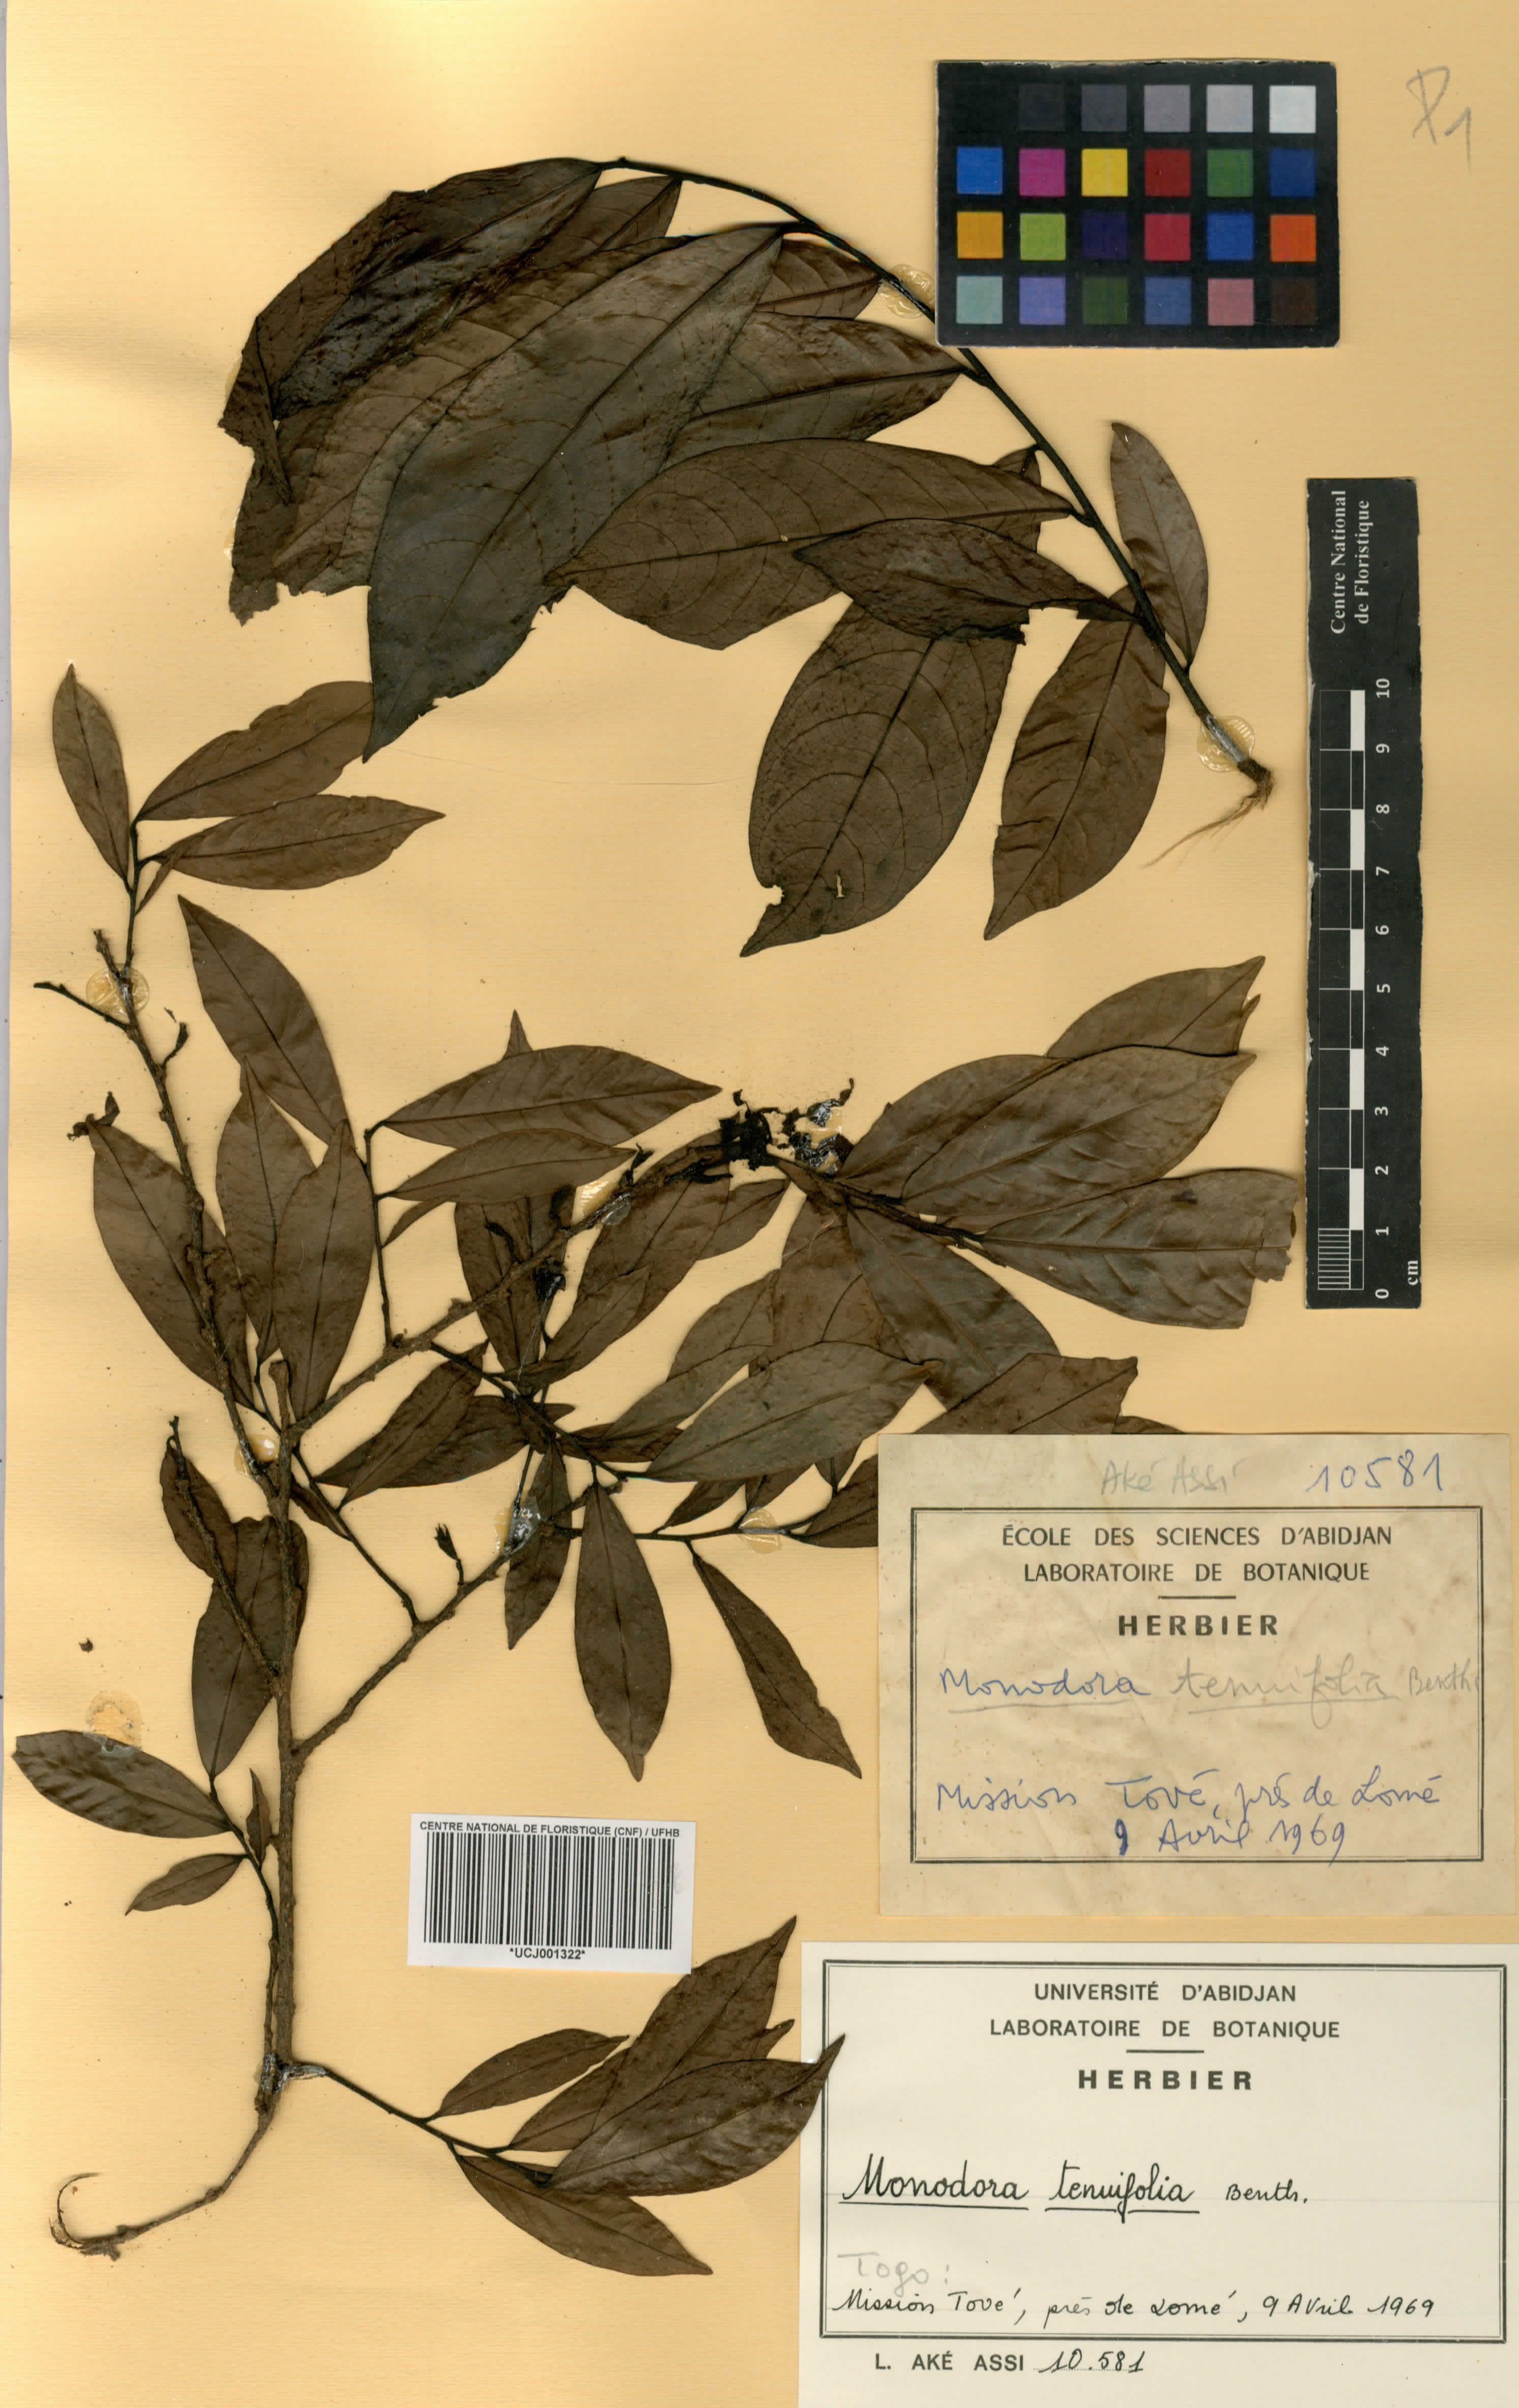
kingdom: Plantae
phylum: Tracheophyta
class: Magnoliopsida
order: Magnoliales
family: Annonaceae
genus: Monodora
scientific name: Monodora tenuifolia
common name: Orchidtree
